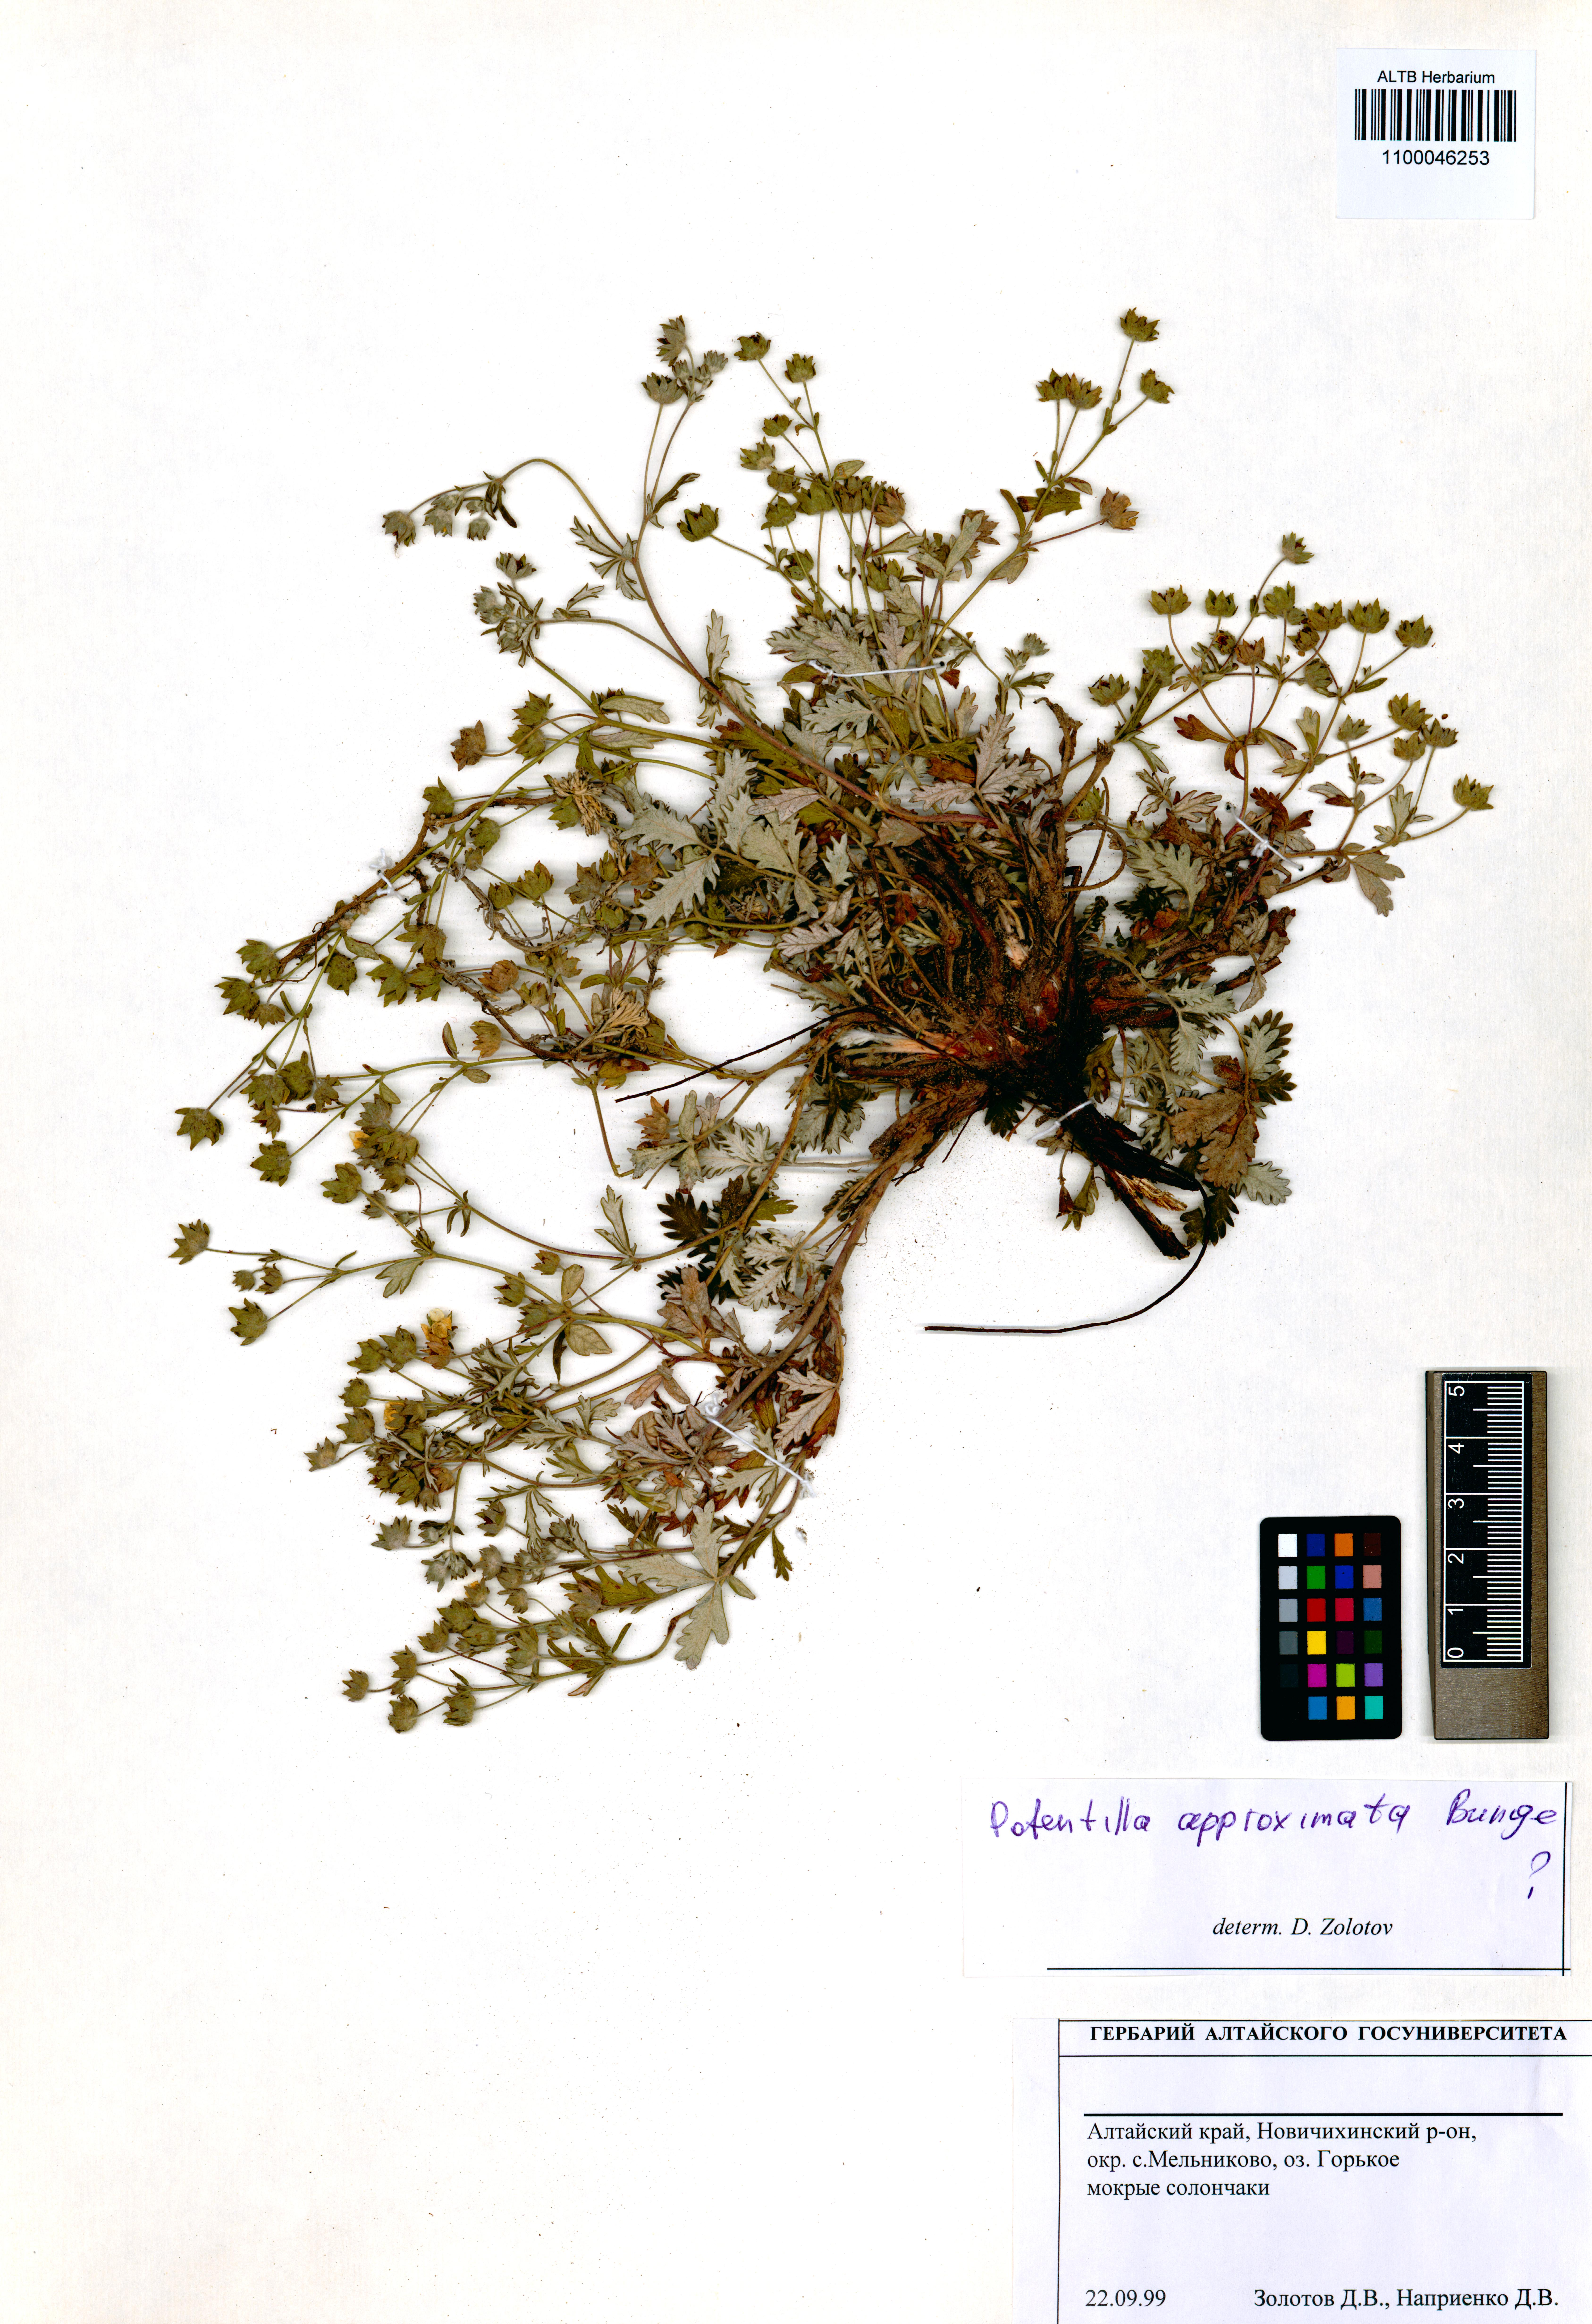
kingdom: Plantae
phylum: Tracheophyta
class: Magnoliopsida
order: Rosales
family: Rosaceae
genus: Potentilla
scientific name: Potentilla conferta
